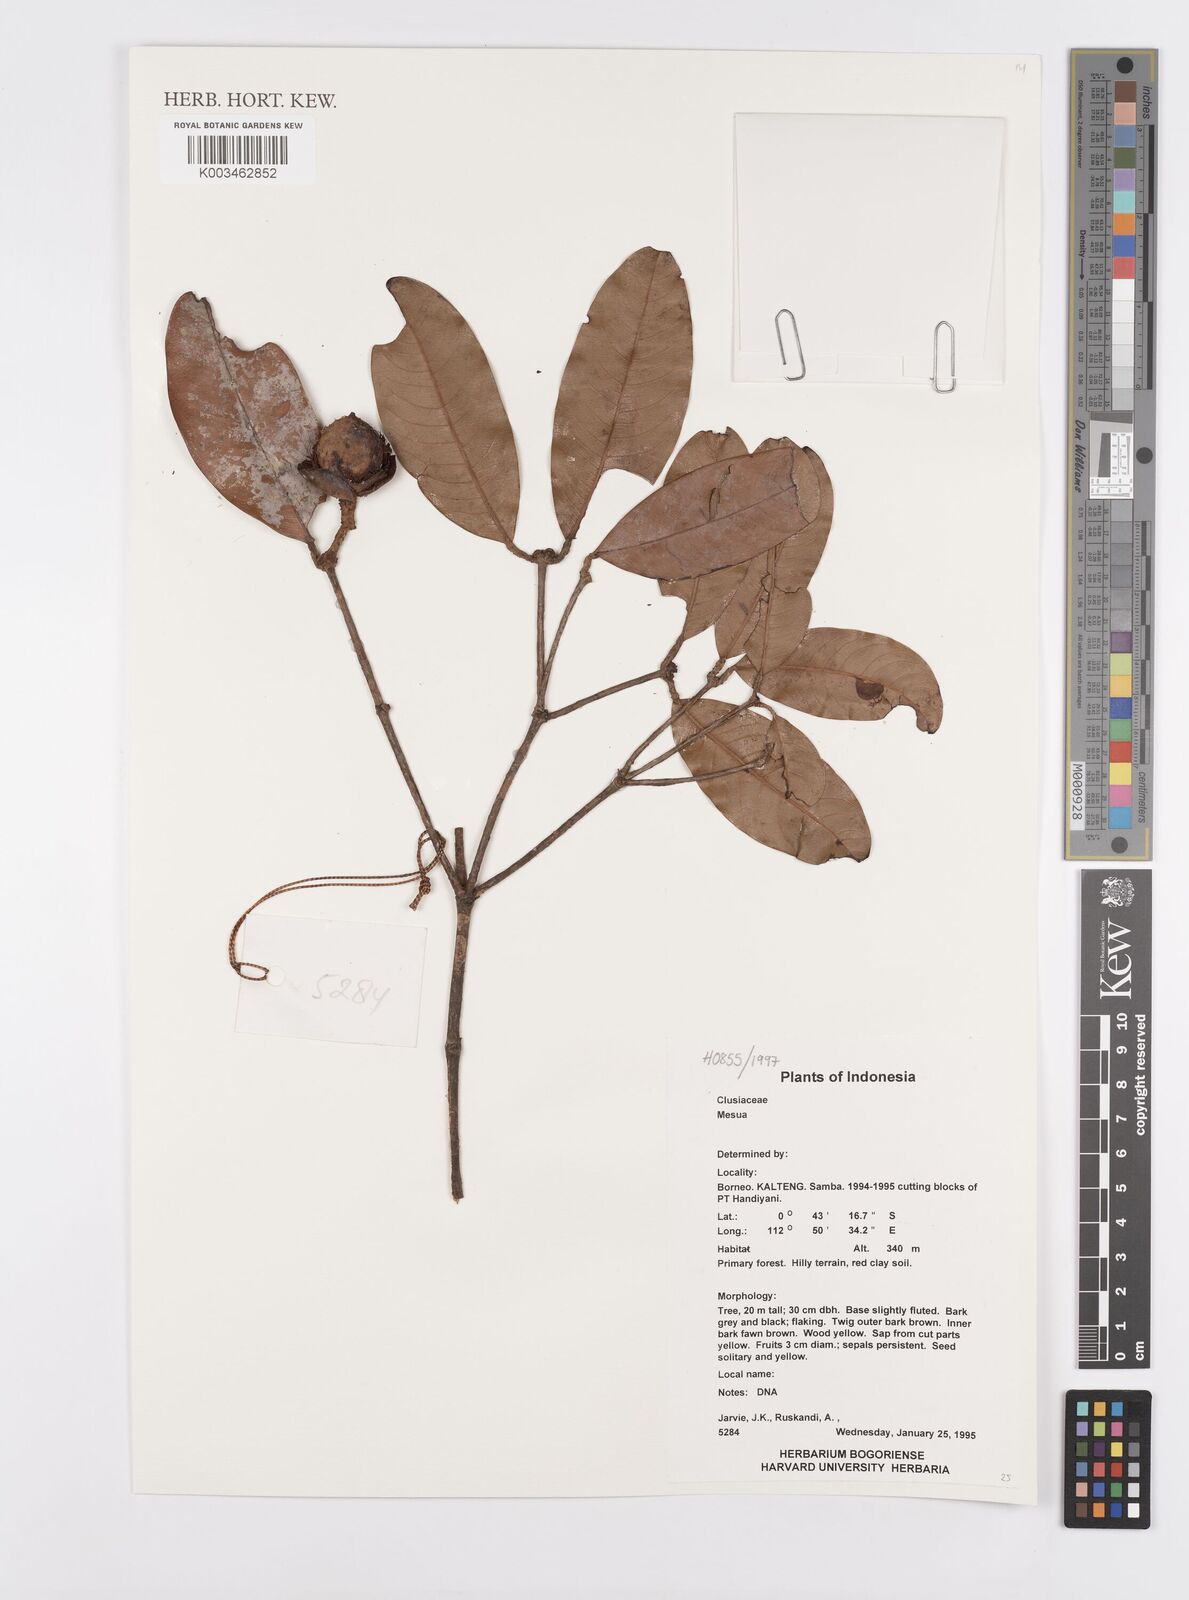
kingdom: Plantae
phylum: Tracheophyta
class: Magnoliopsida
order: Malpighiales
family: Calophyllaceae
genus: Mesua
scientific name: Mesua
